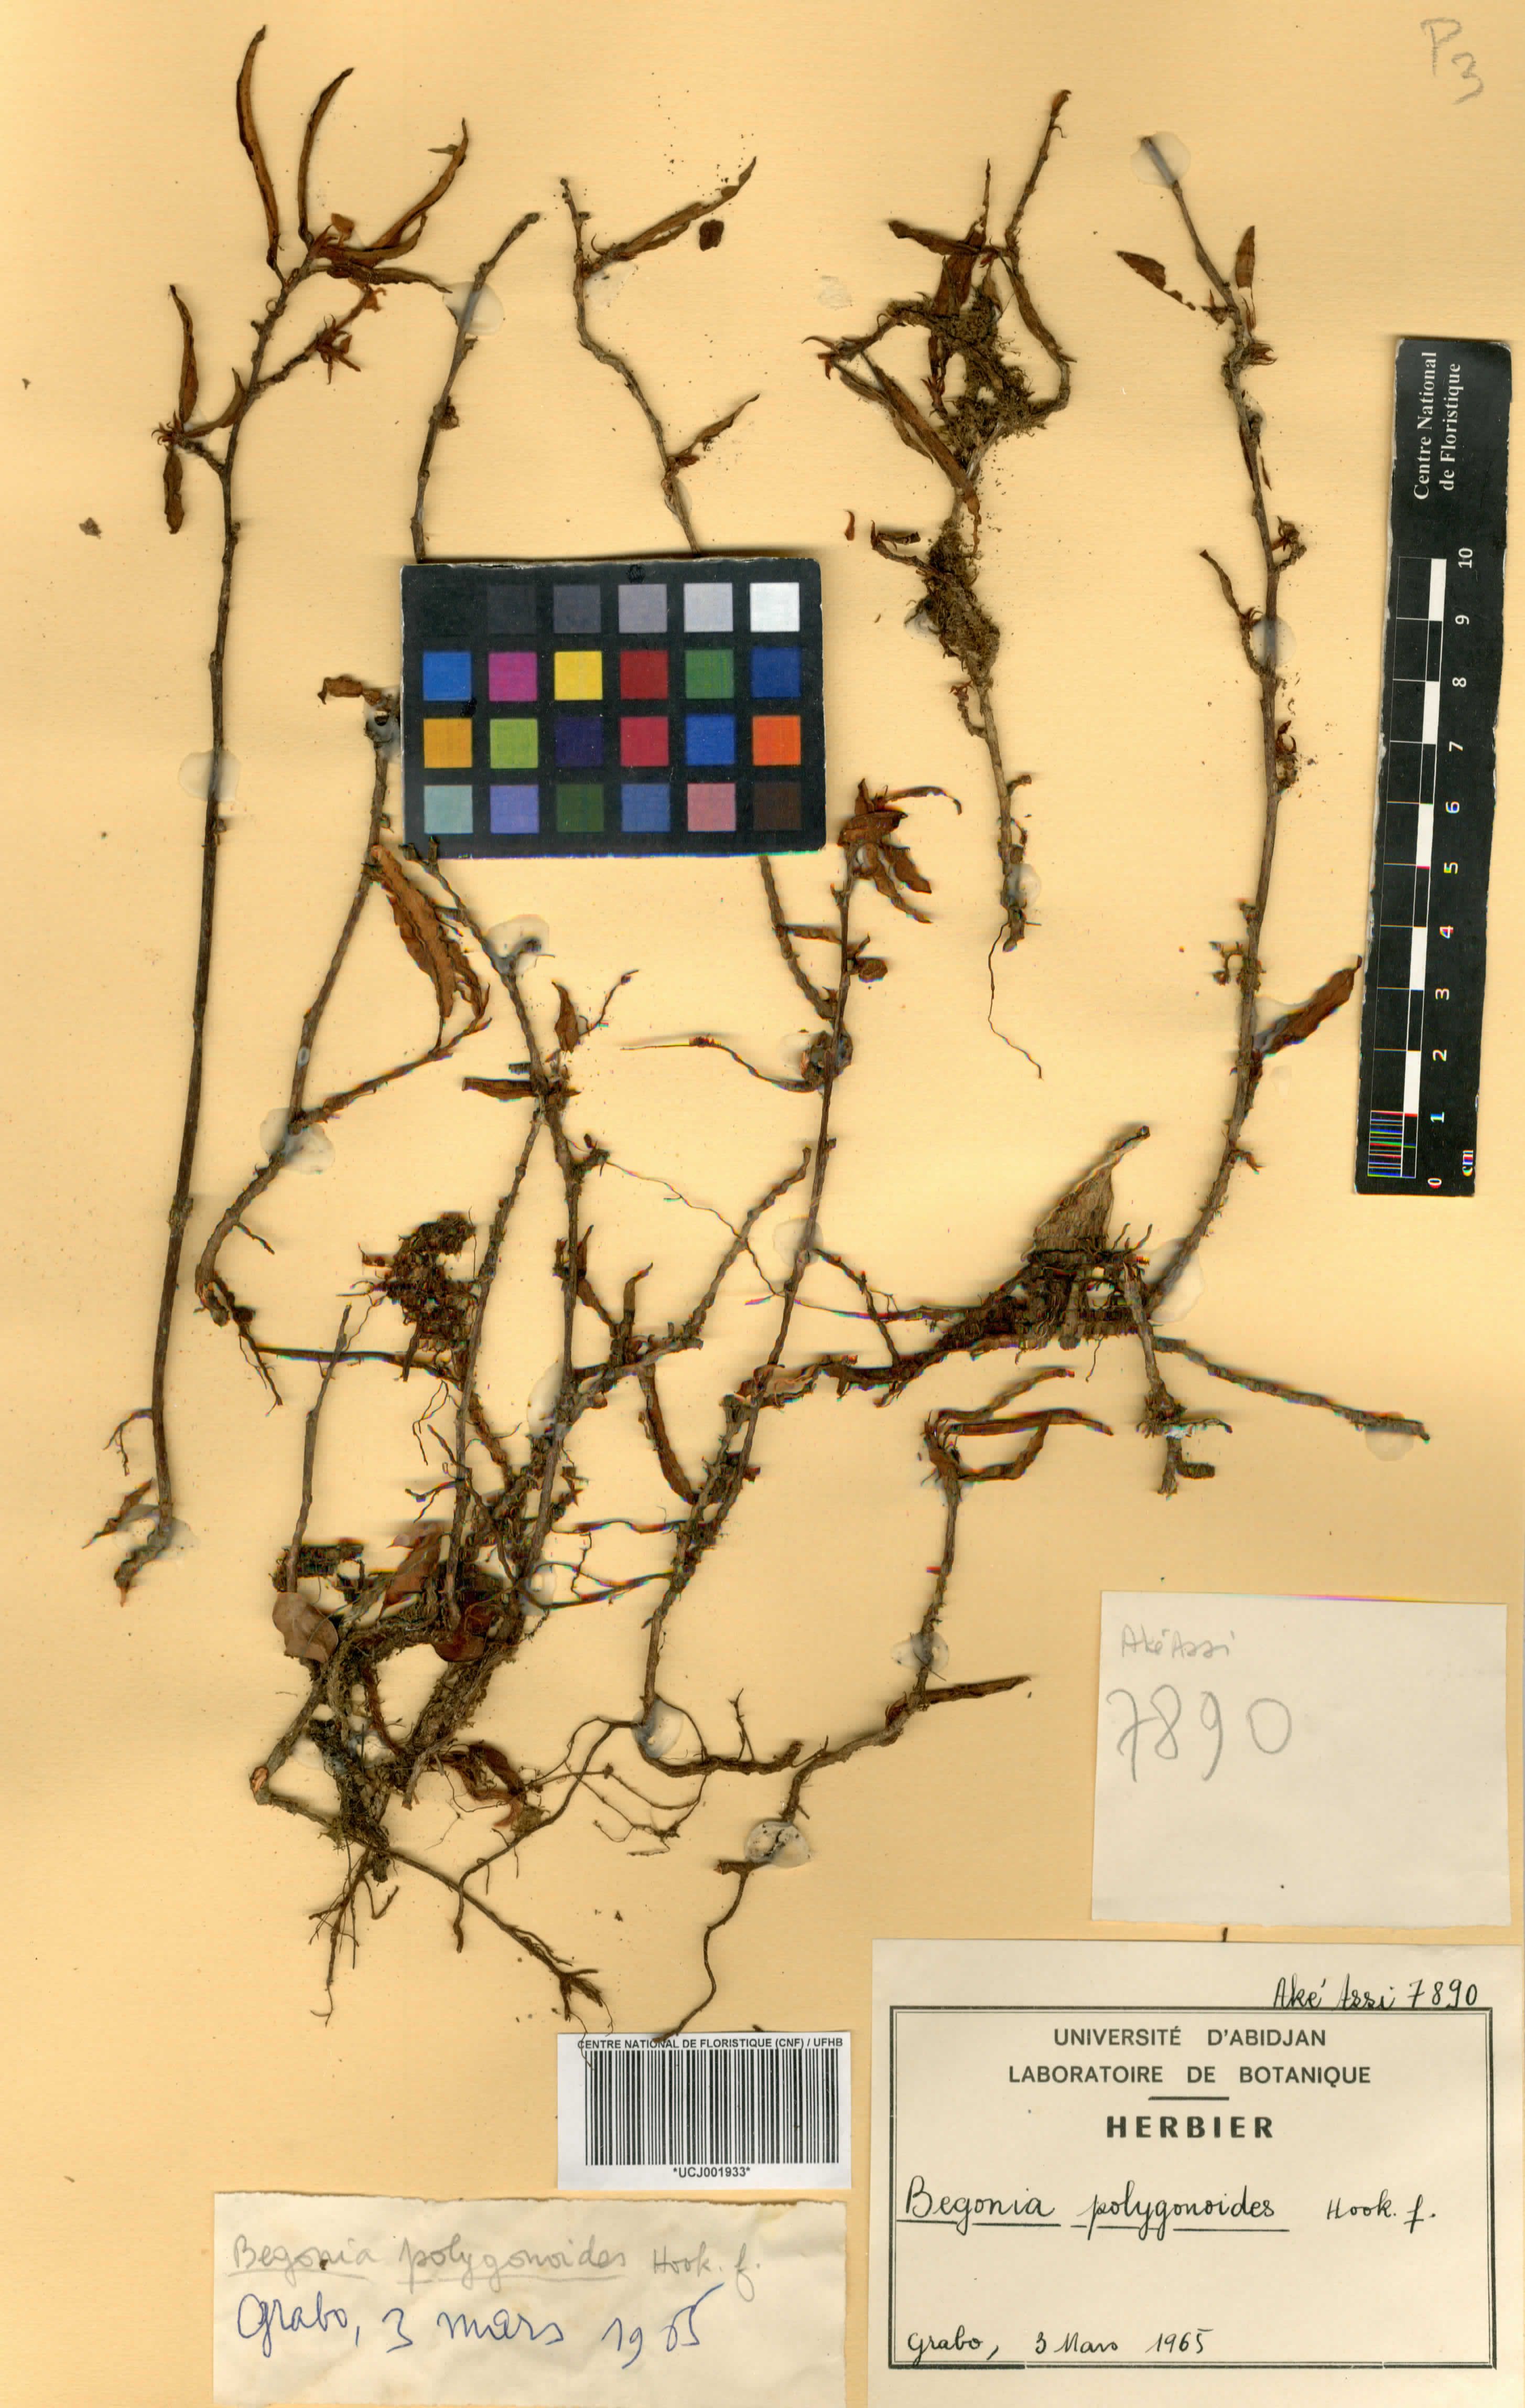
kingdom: Plantae
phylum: Tracheophyta
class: Magnoliopsida
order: Cucurbitales
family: Begoniaceae
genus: Begonia
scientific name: Begonia polygonoides
